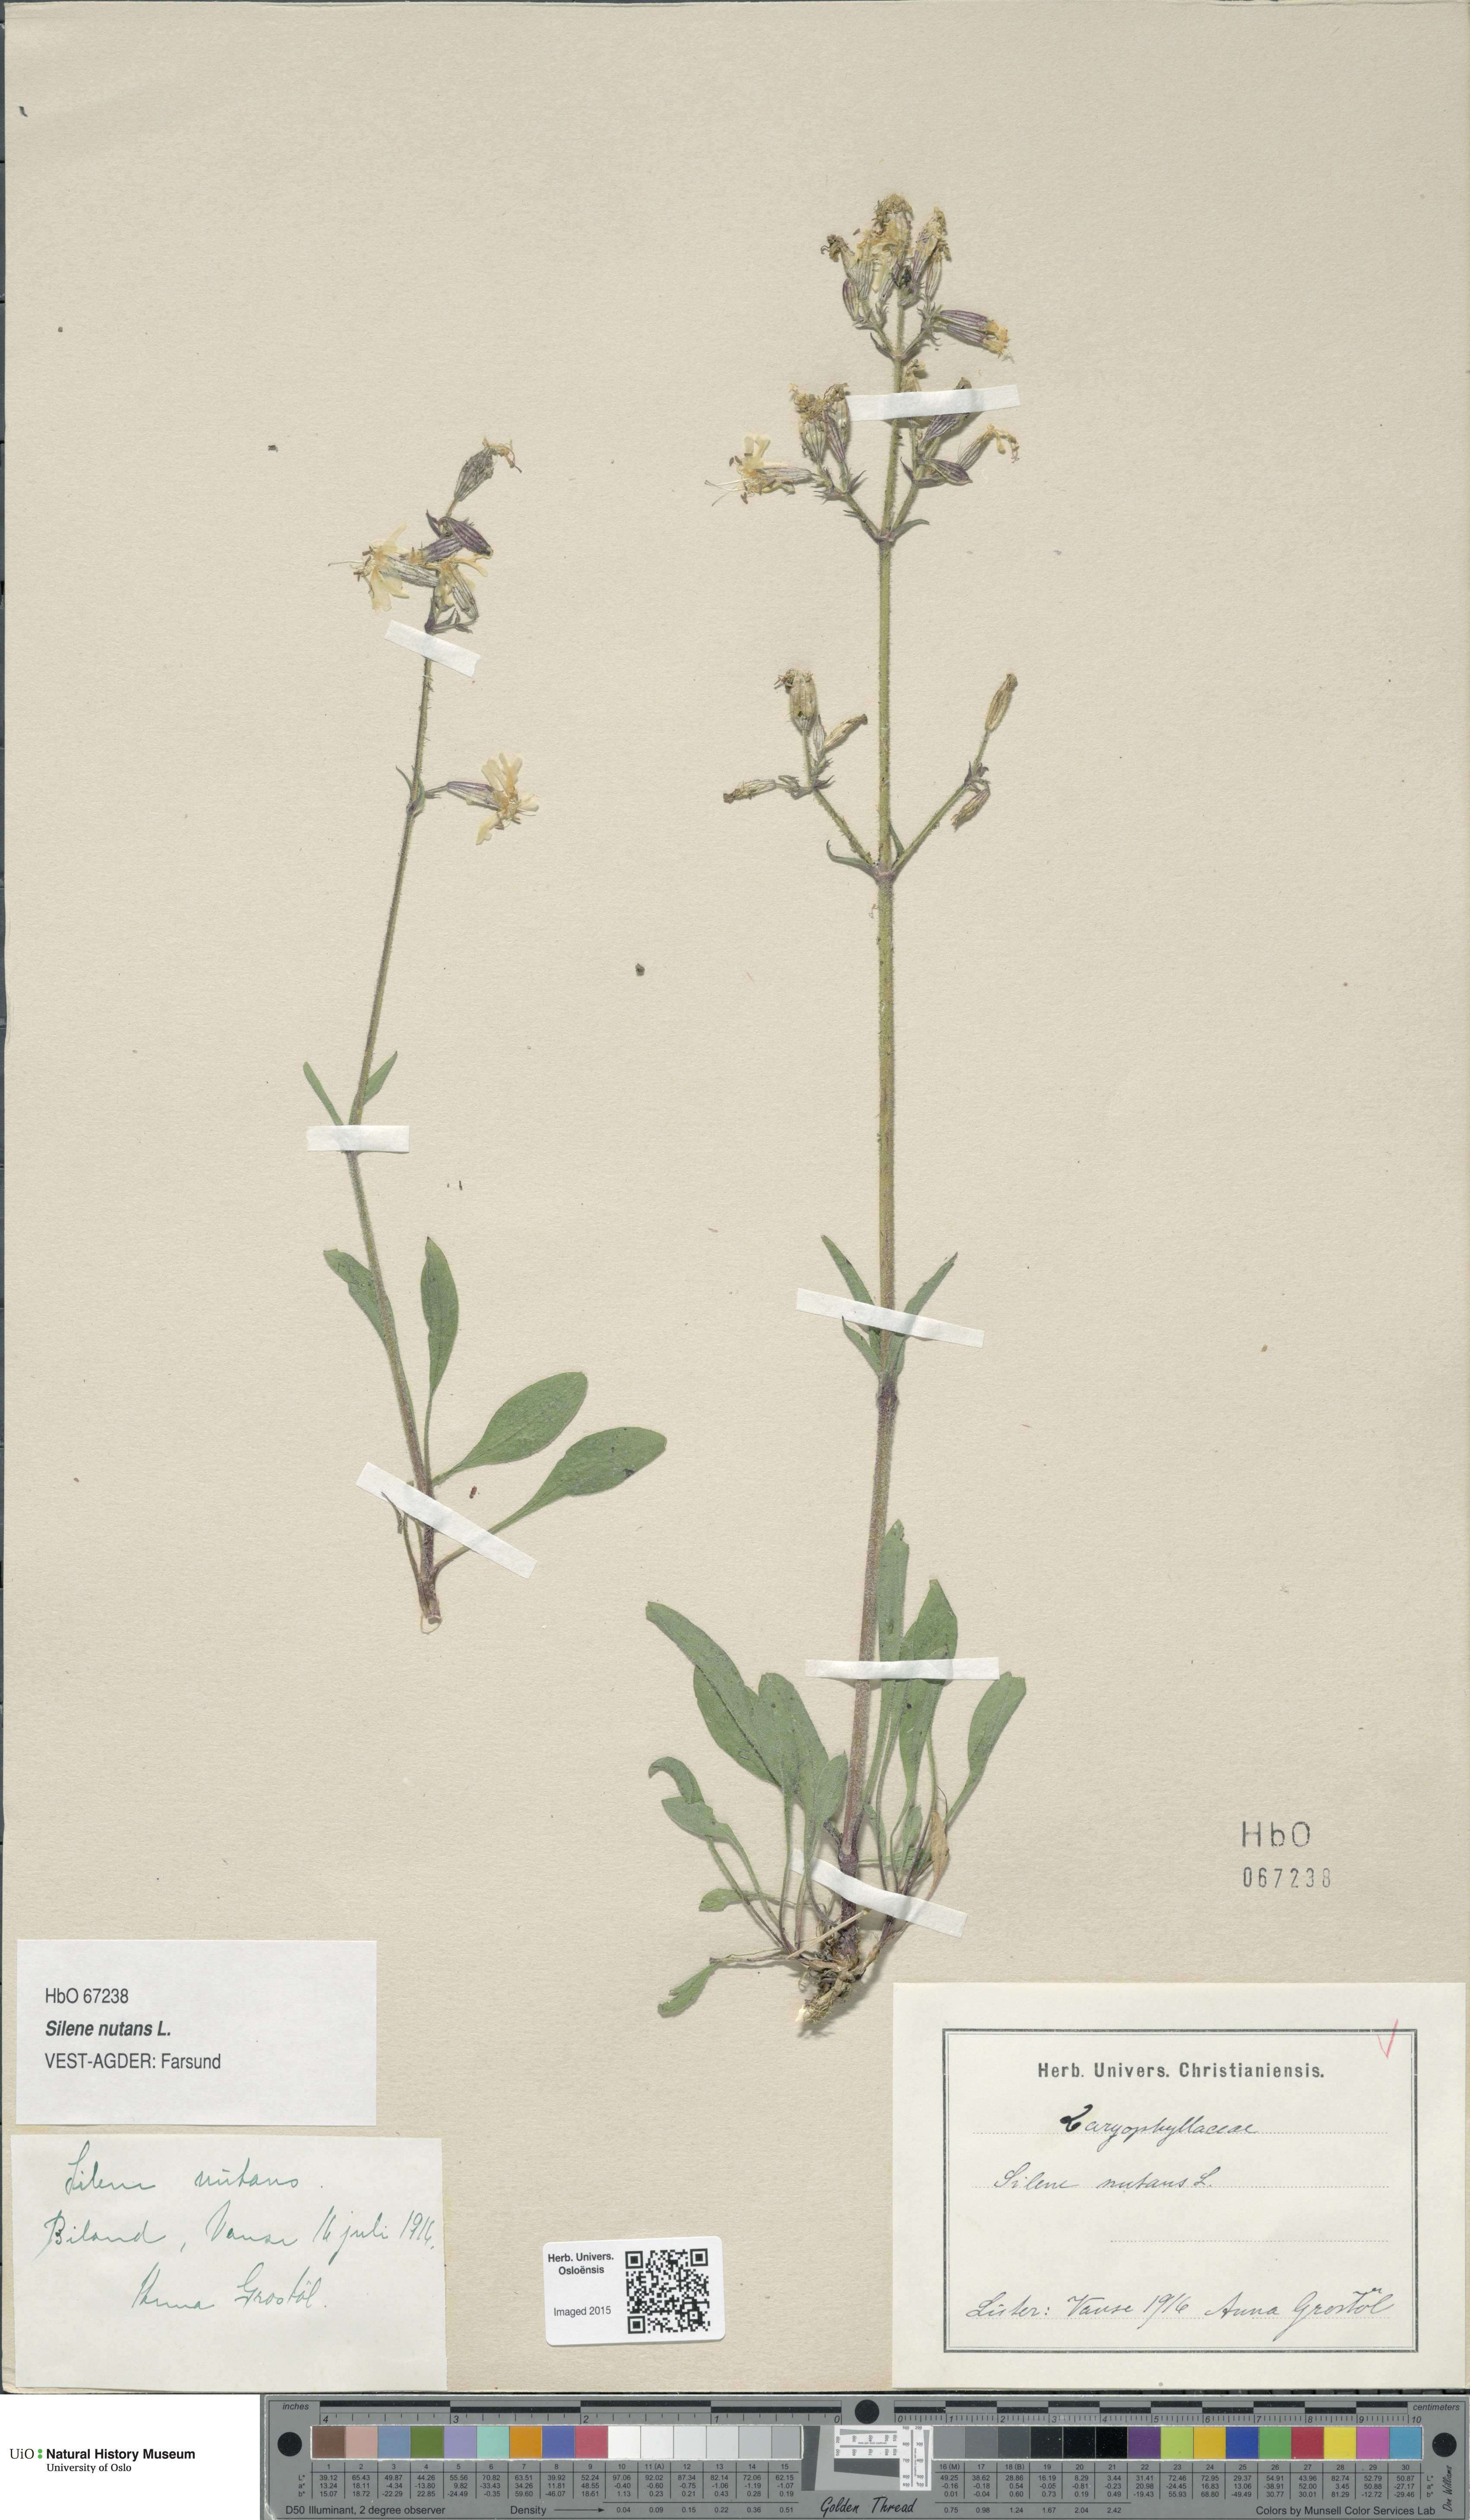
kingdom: Plantae
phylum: Tracheophyta
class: Magnoliopsida
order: Caryophyllales
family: Caryophyllaceae
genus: Silene
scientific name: Silene nutans
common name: Nottingham catchfly
